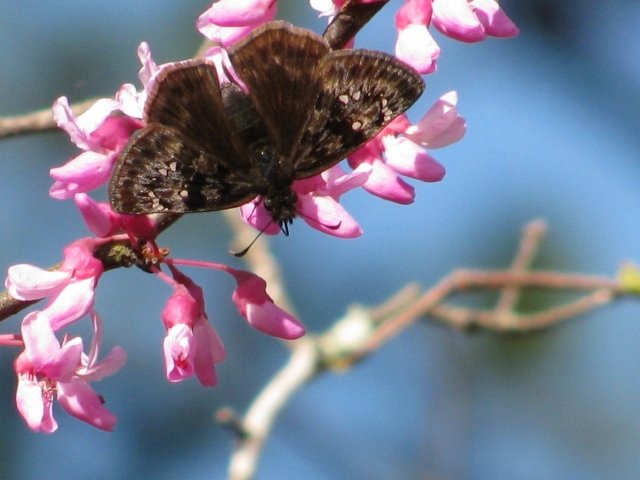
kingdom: Animalia
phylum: Arthropoda
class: Insecta
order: Lepidoptera
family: Hesperiidae
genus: Gesta
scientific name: Gesta
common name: Juvenal's Duskywing
